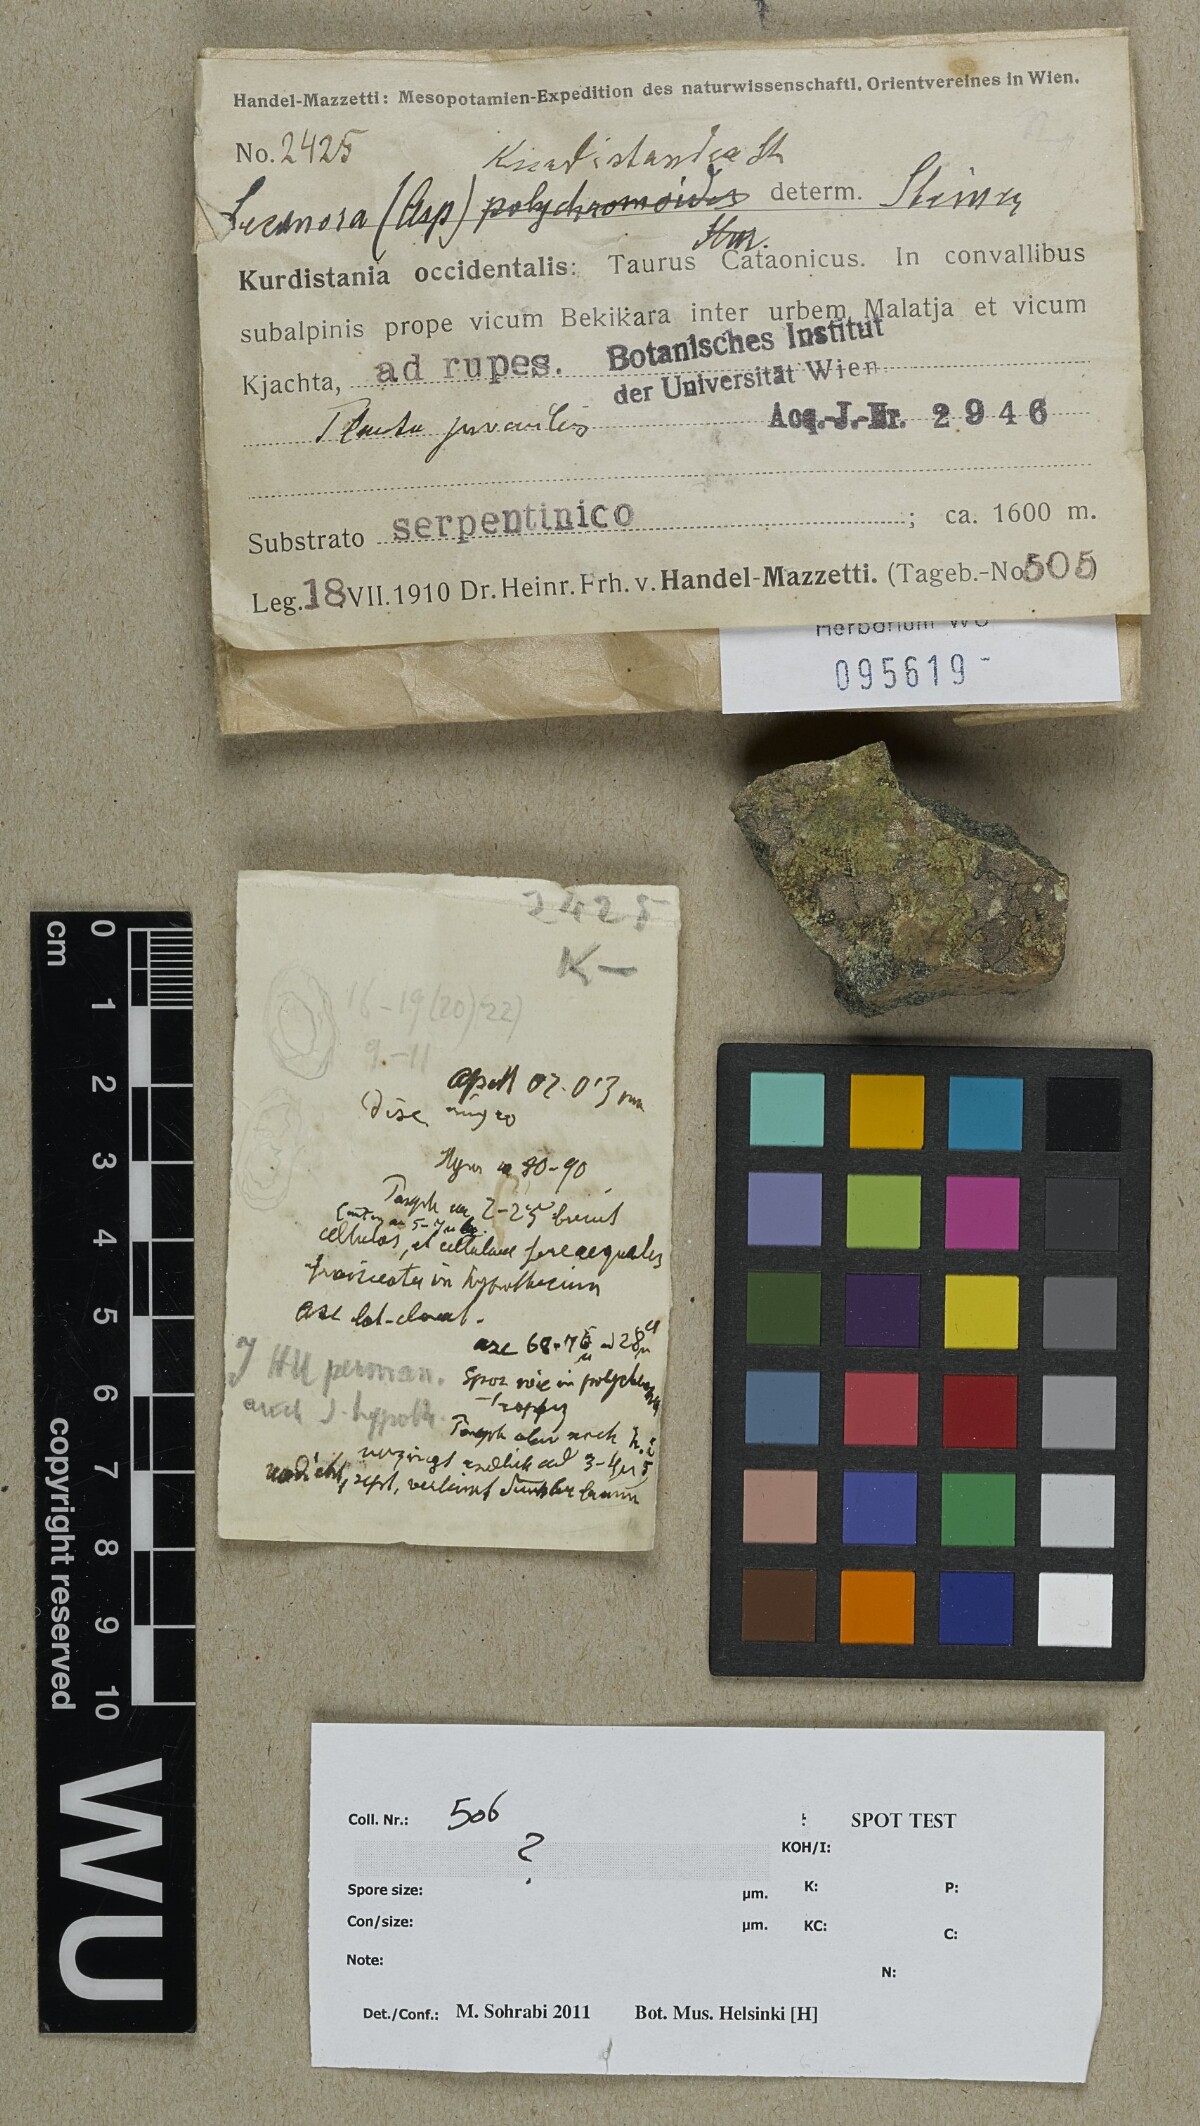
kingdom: Fungi
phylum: Ascomycota
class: Lecanoromycetes
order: Lecanorales
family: Lecanoraceae
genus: Lecanora
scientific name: Lecanora
